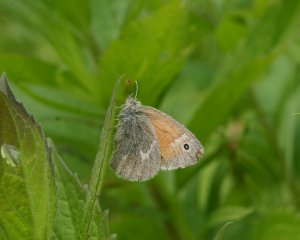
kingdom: Animalia
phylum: Arthropoda
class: Insecta
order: Lepidoptera
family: Nymphalidae
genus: Coenonympha
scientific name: Coenonympha tullia
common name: Large Heath
